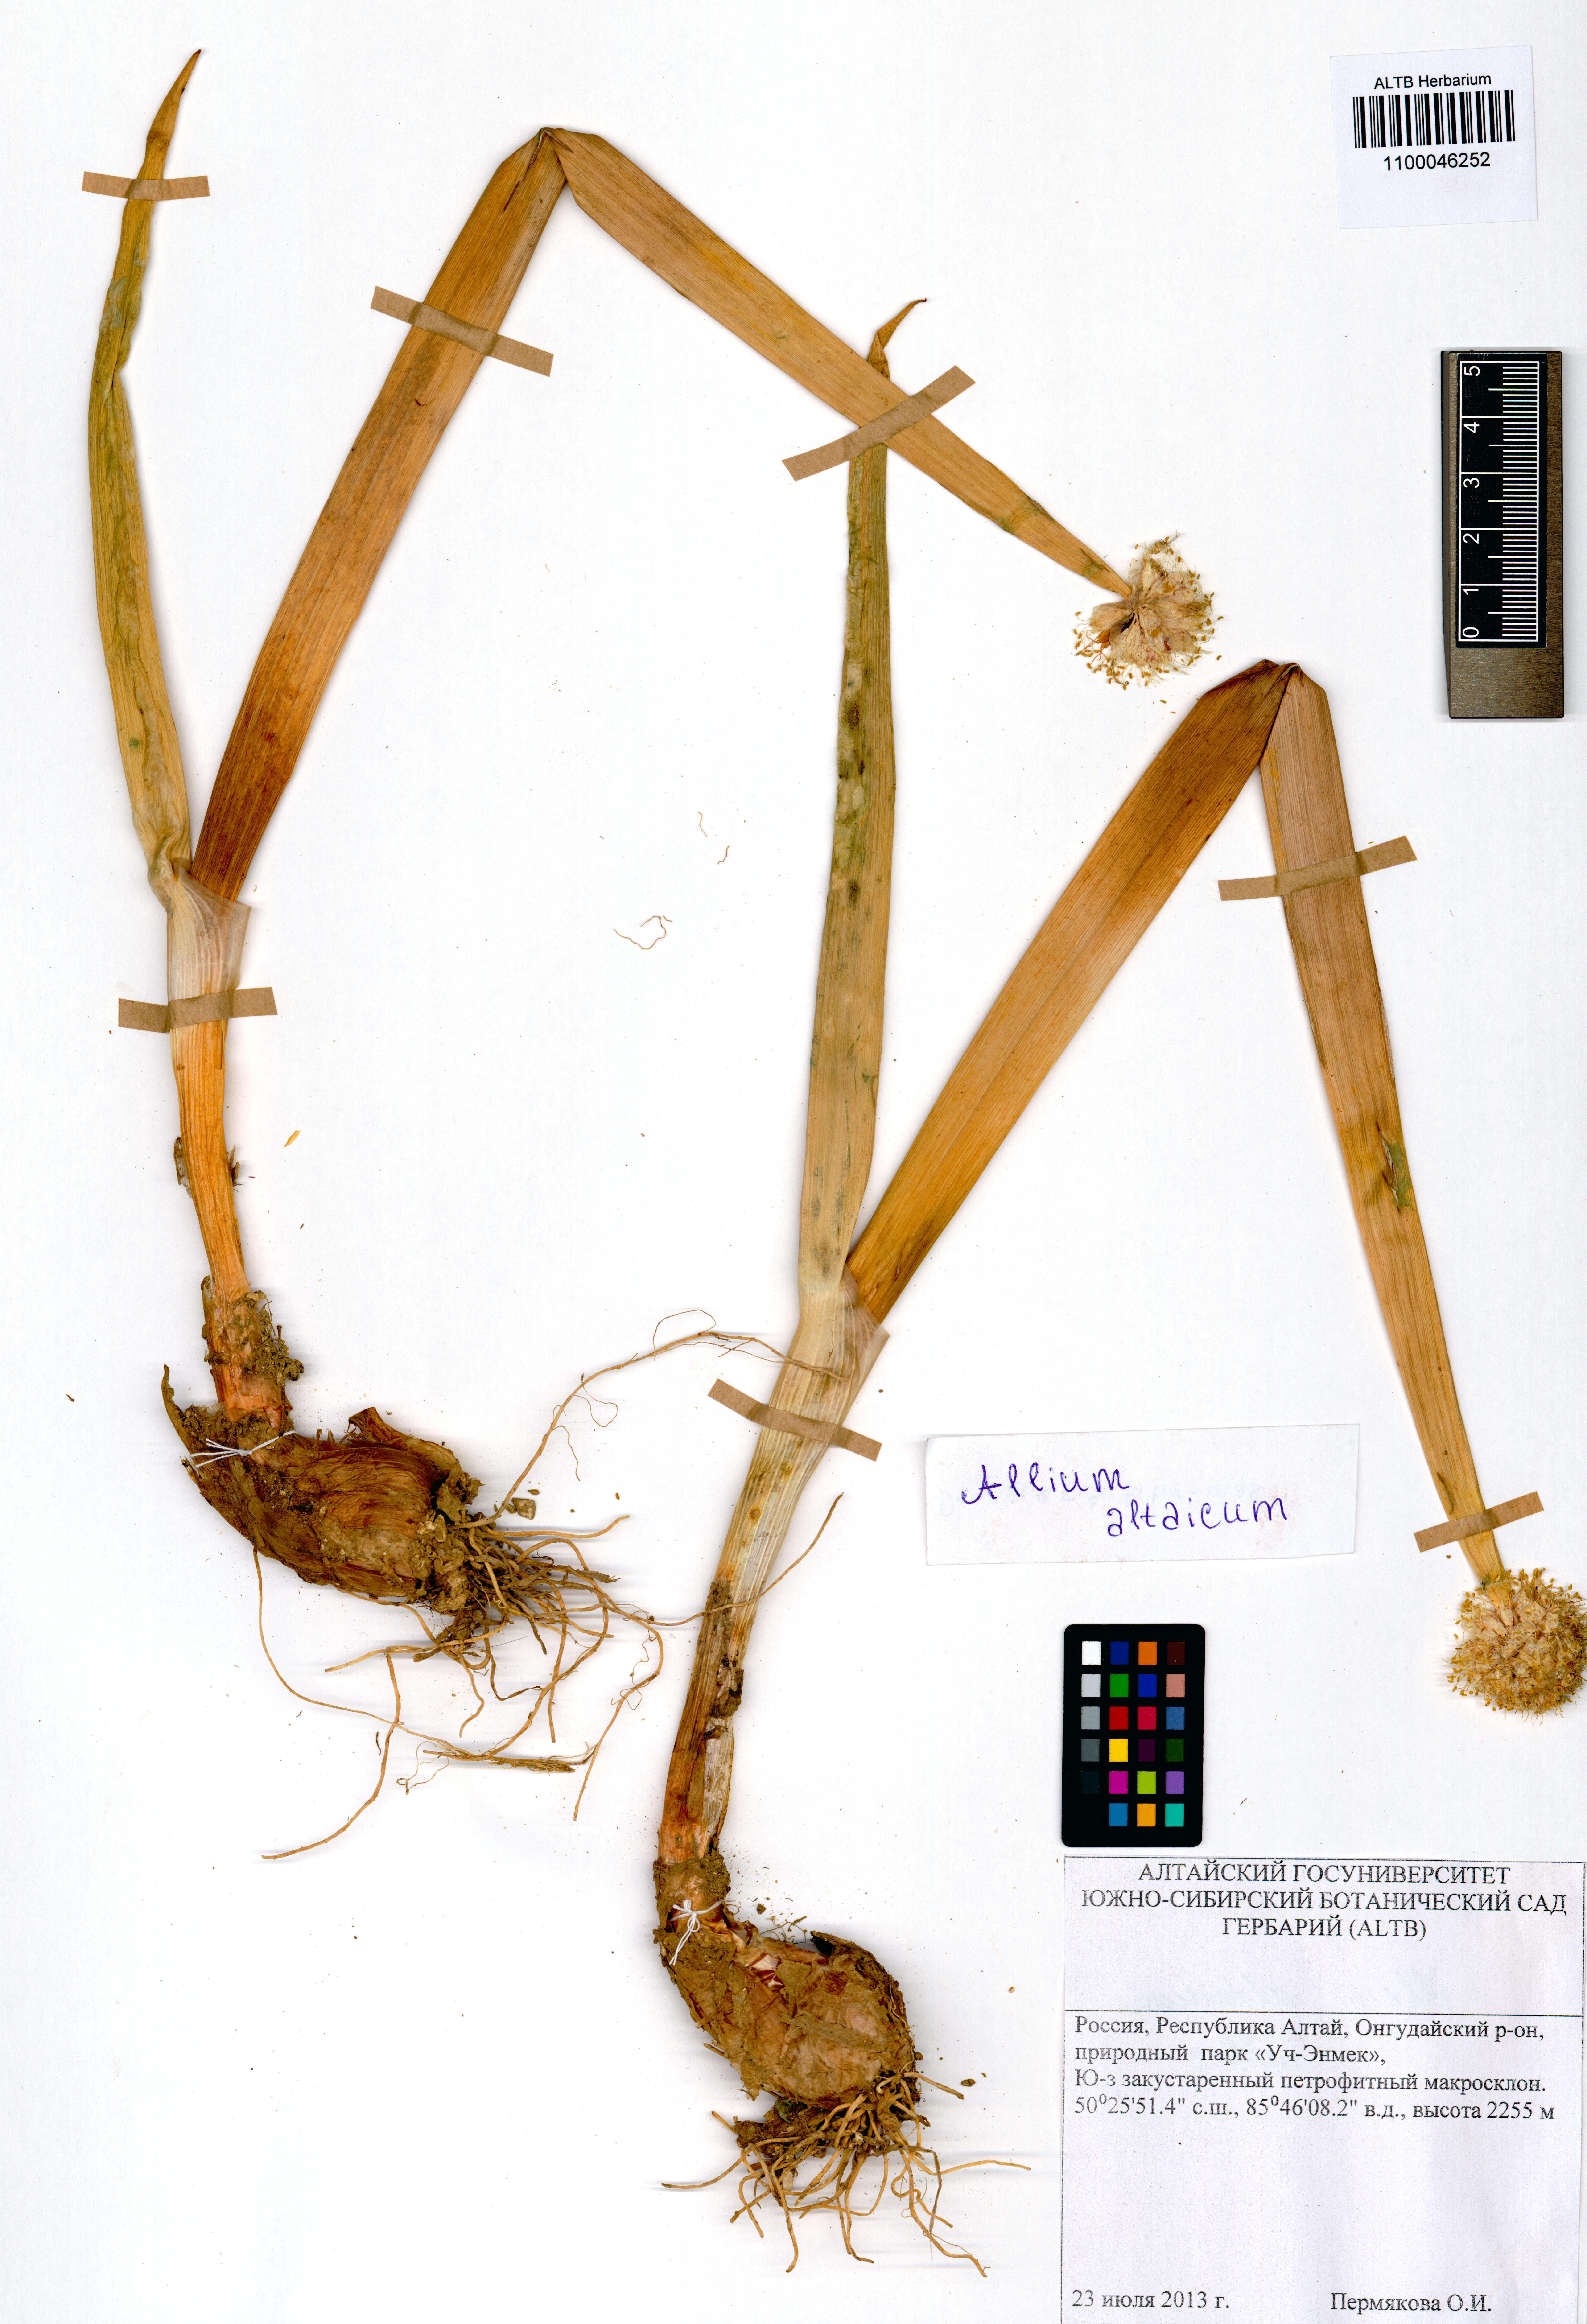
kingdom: Plantae
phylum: Tracheophyta
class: Liliopsida
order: Asparagales
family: Amaryllidaceae
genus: Allium
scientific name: Allium altaicum
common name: Altai onion
